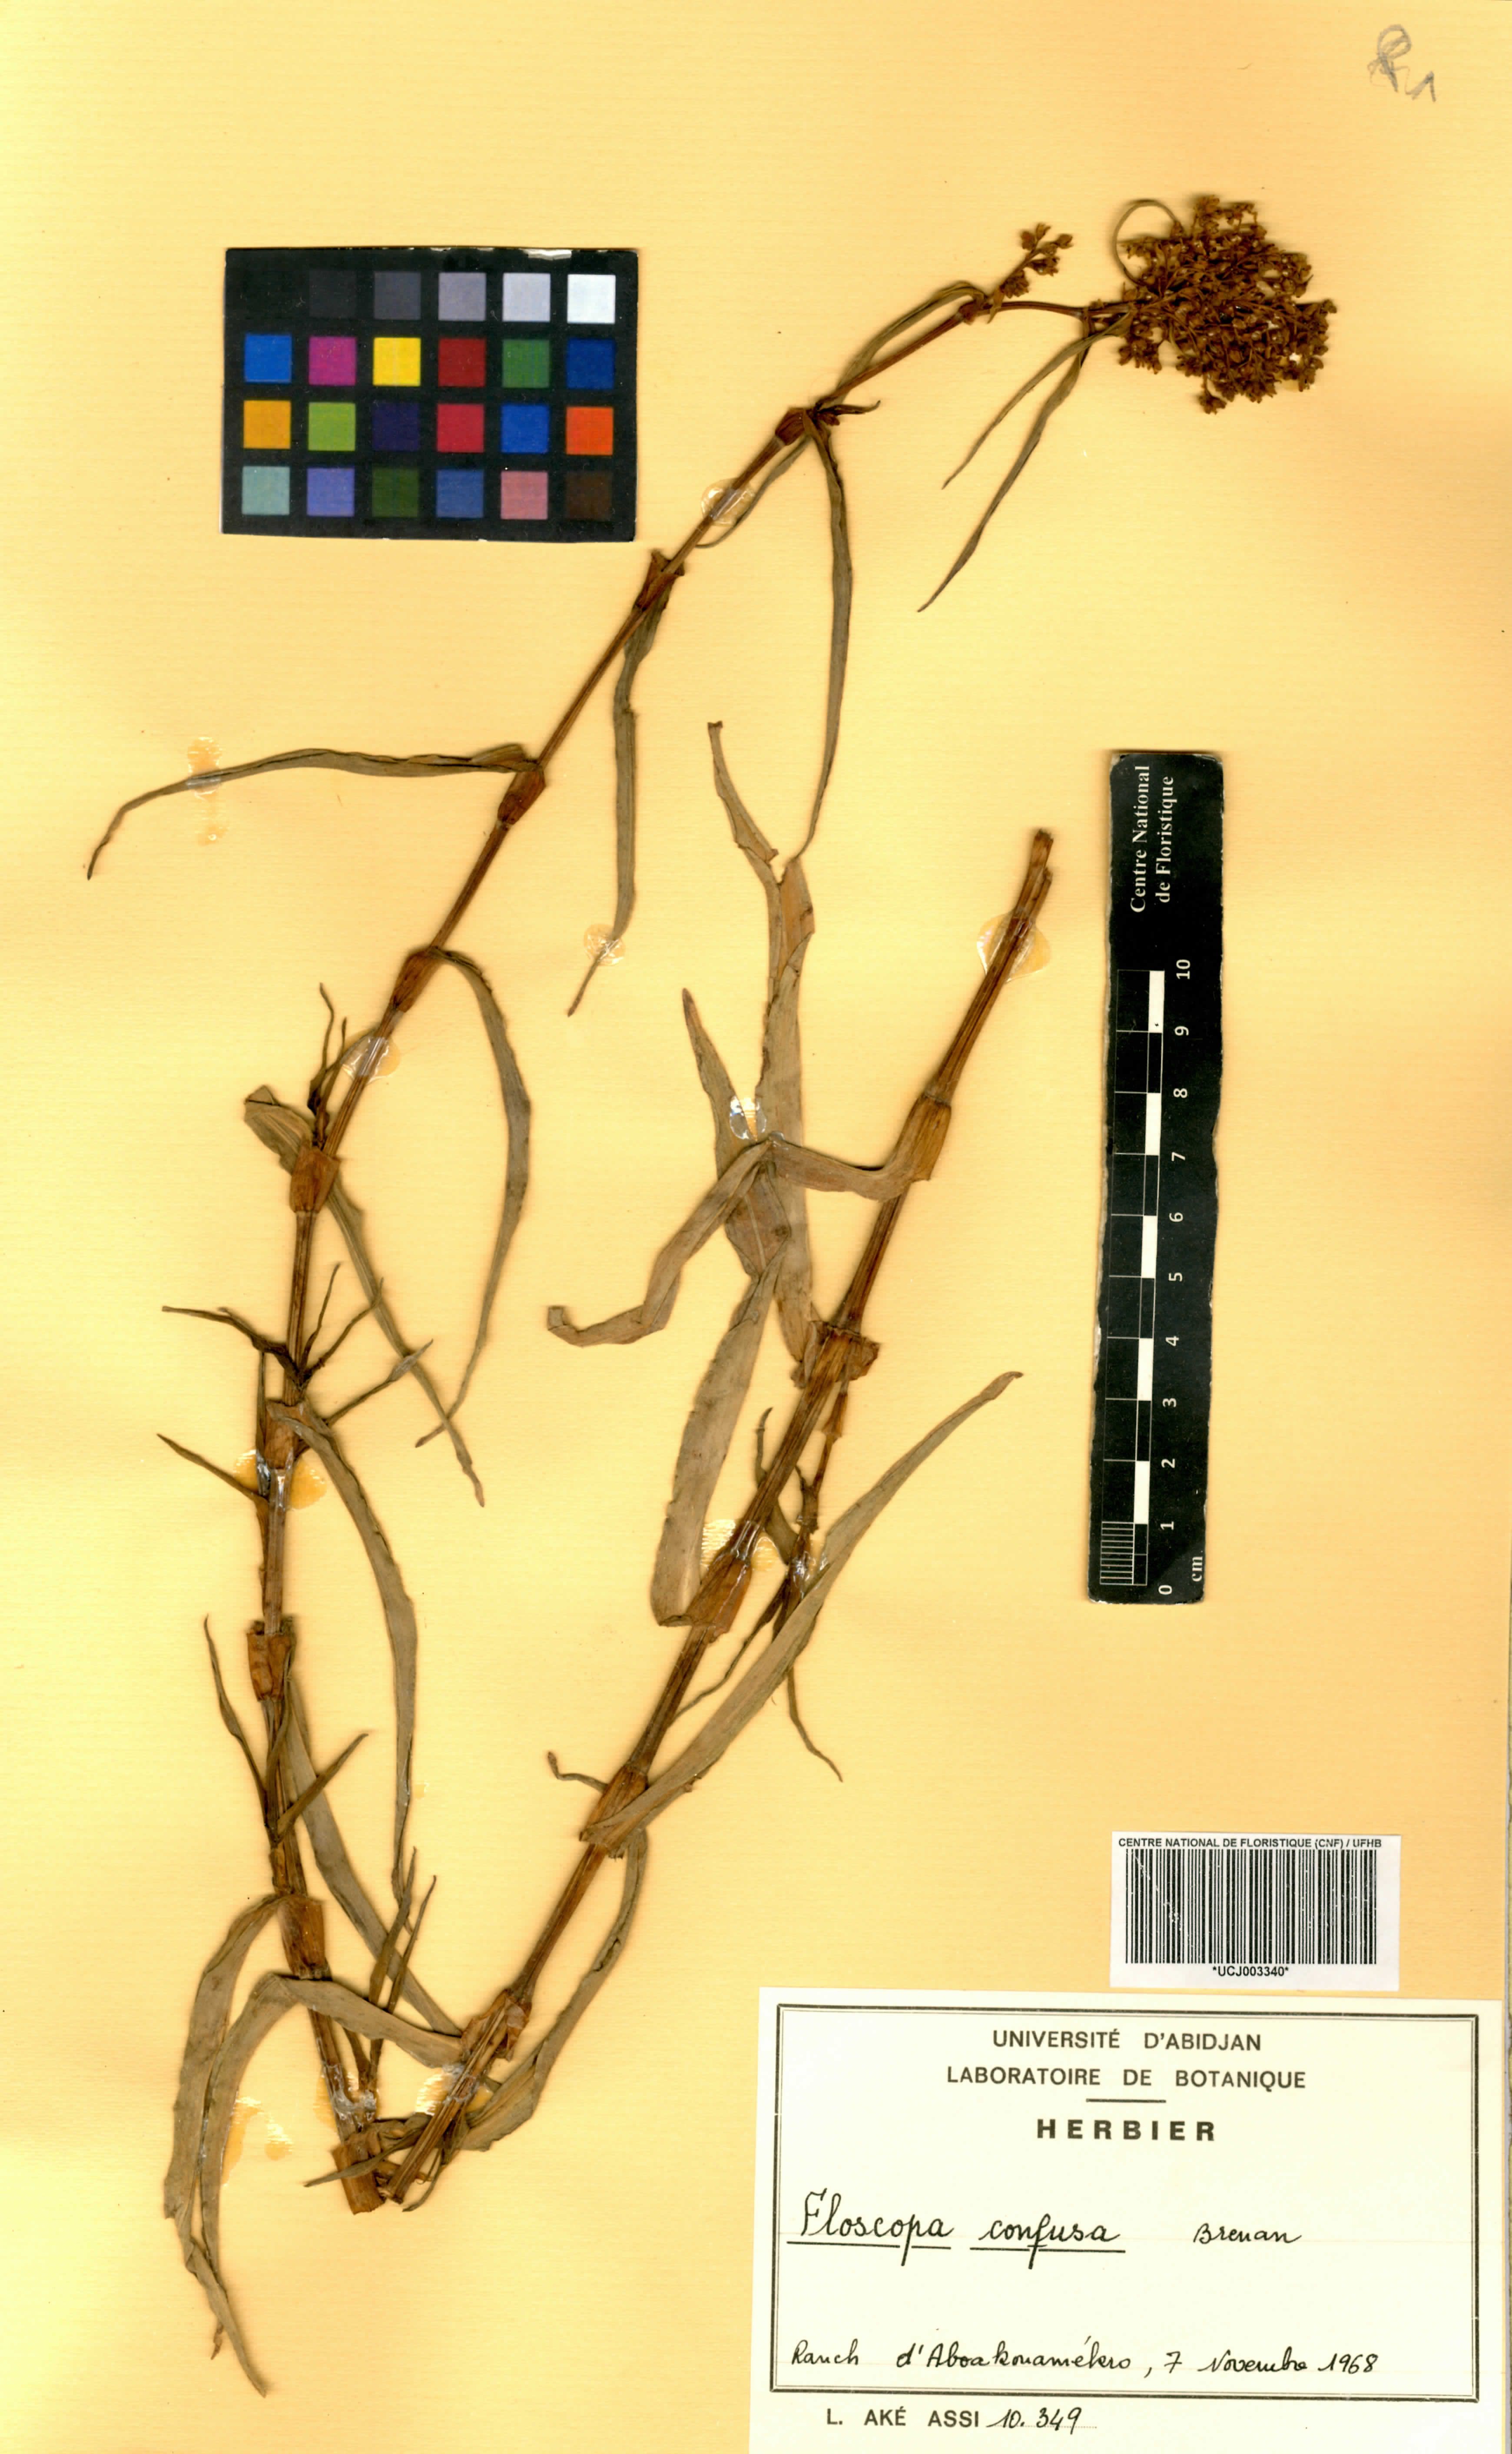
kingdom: Plantae
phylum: Tracheophyta
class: Liliopsida
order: Commelinales
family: Commelinaceae
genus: Floscopa
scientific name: Floscopa confusa
